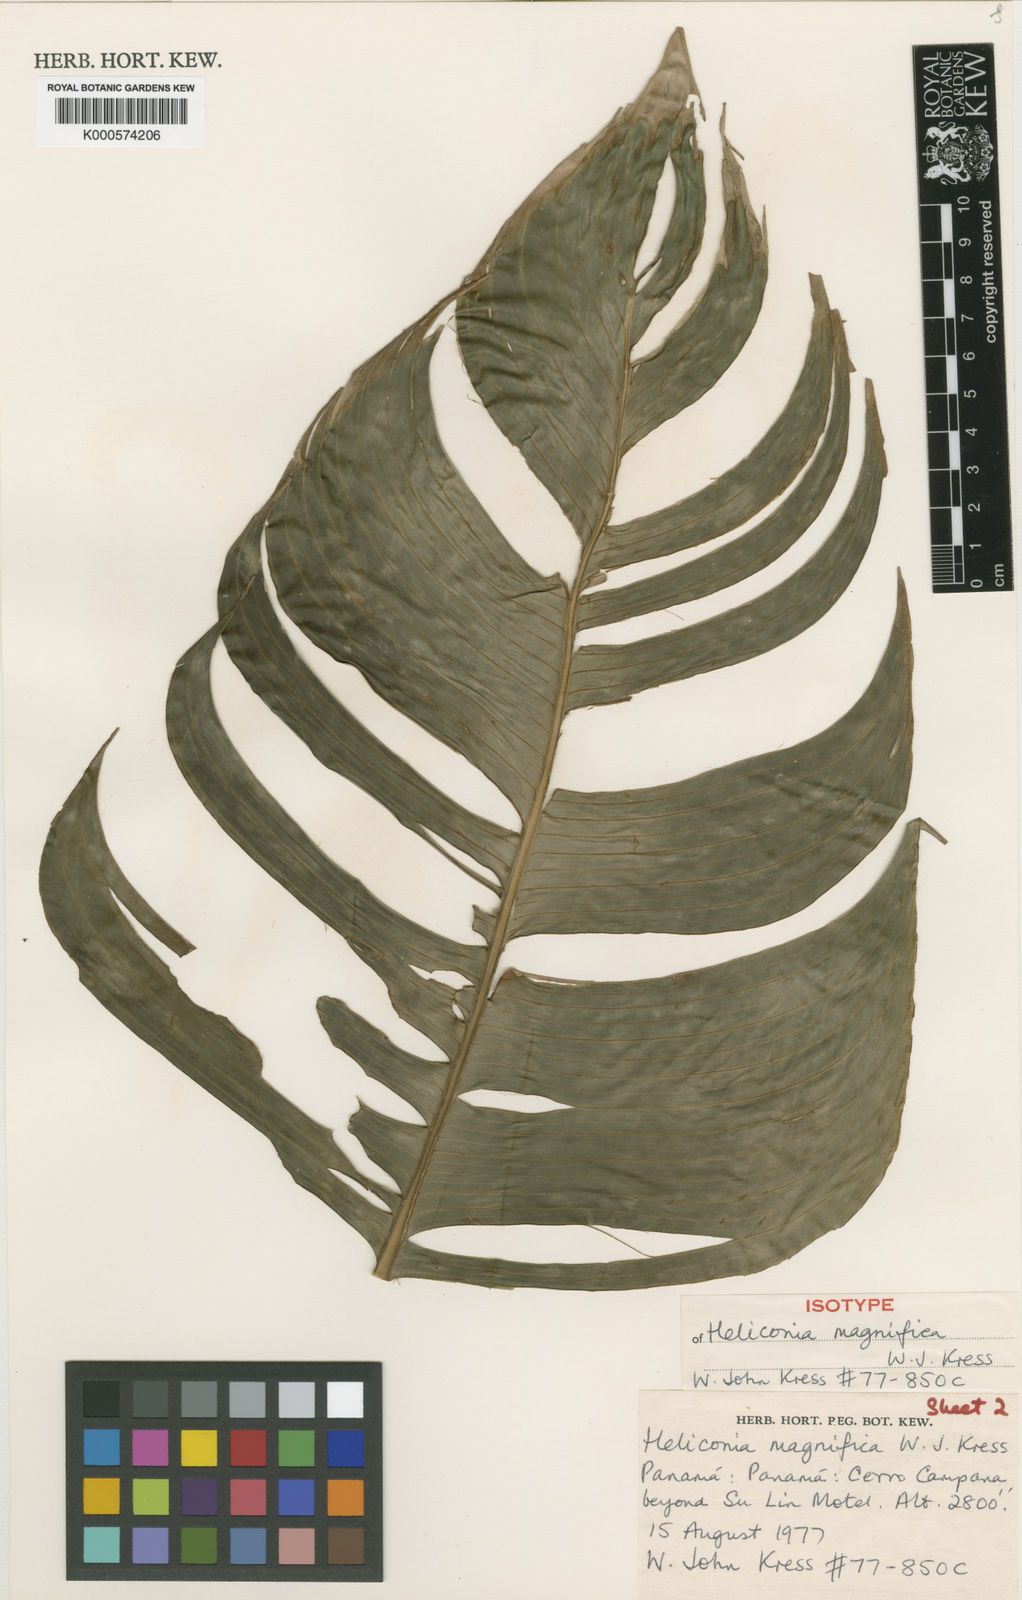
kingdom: Plantae
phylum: Tracheophyta
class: Liliopsida
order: Zingiberales
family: Heliconiaceae
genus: Heliconia
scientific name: Heliconia magnifica
